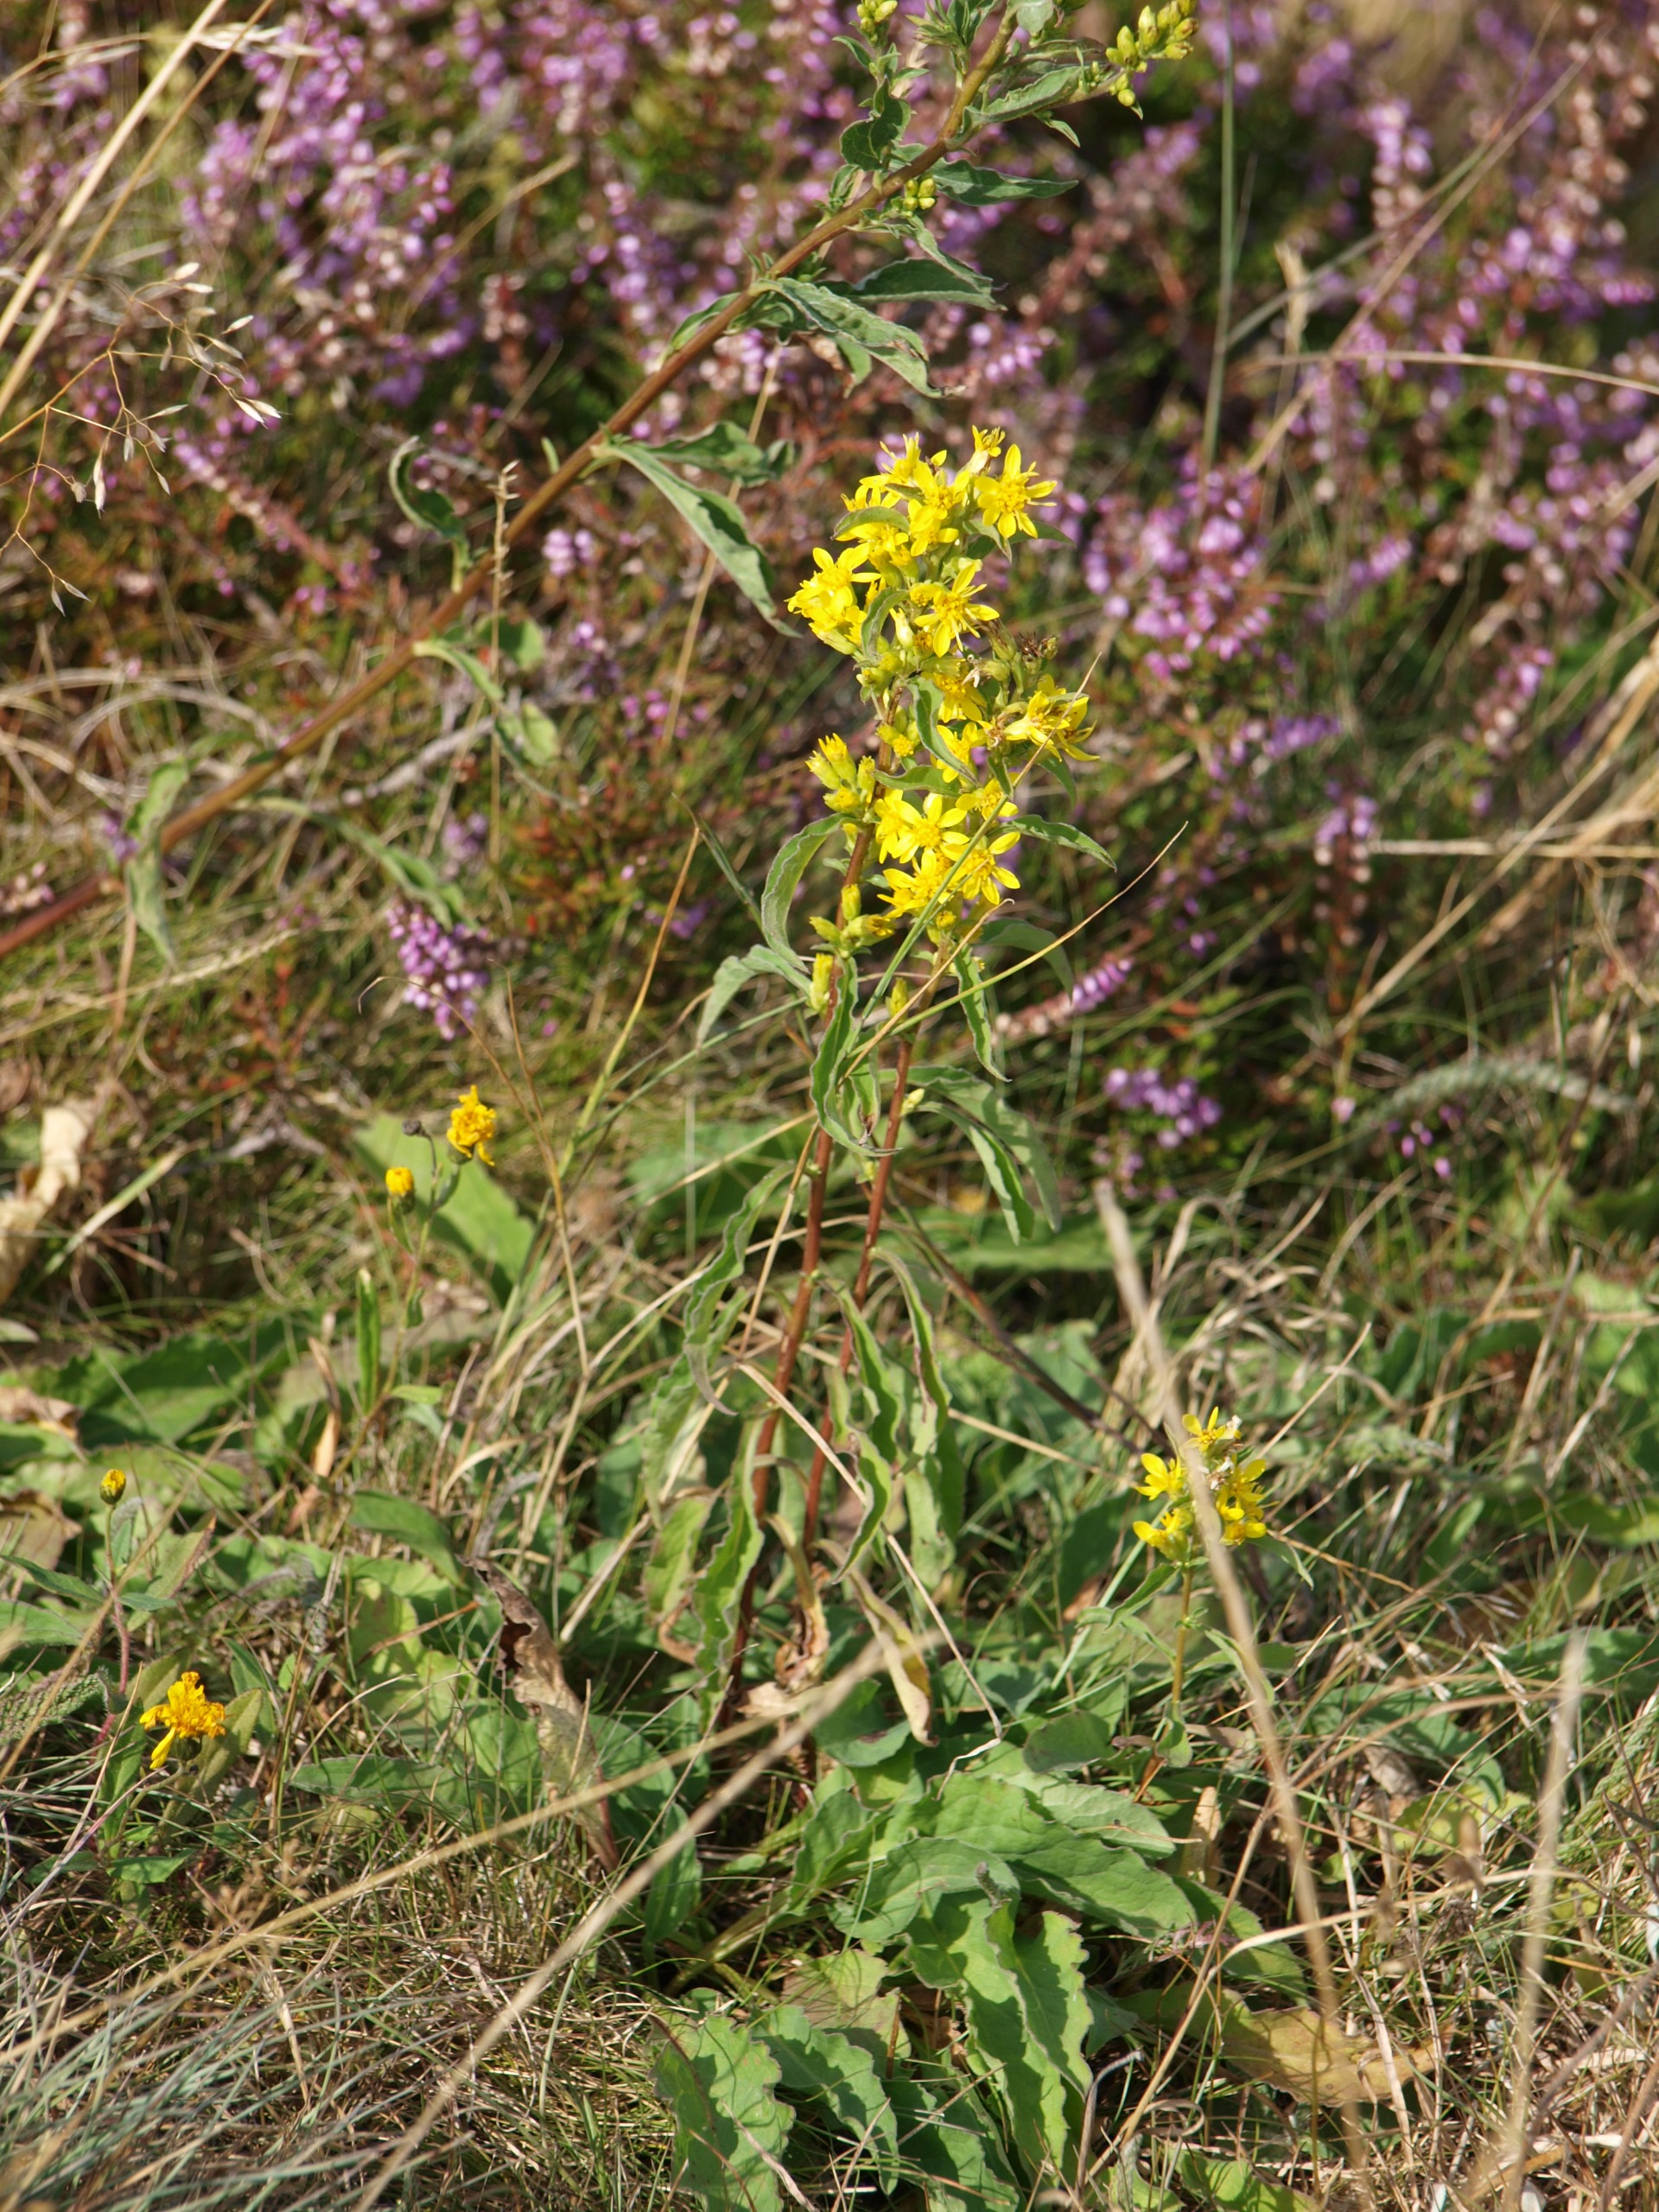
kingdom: Plantae
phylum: Tracheophyta
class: Magnoliopsida
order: Asterales
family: Asteraceae
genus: Solidago
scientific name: Solidago virgaurea
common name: Almindelig gyldenris
